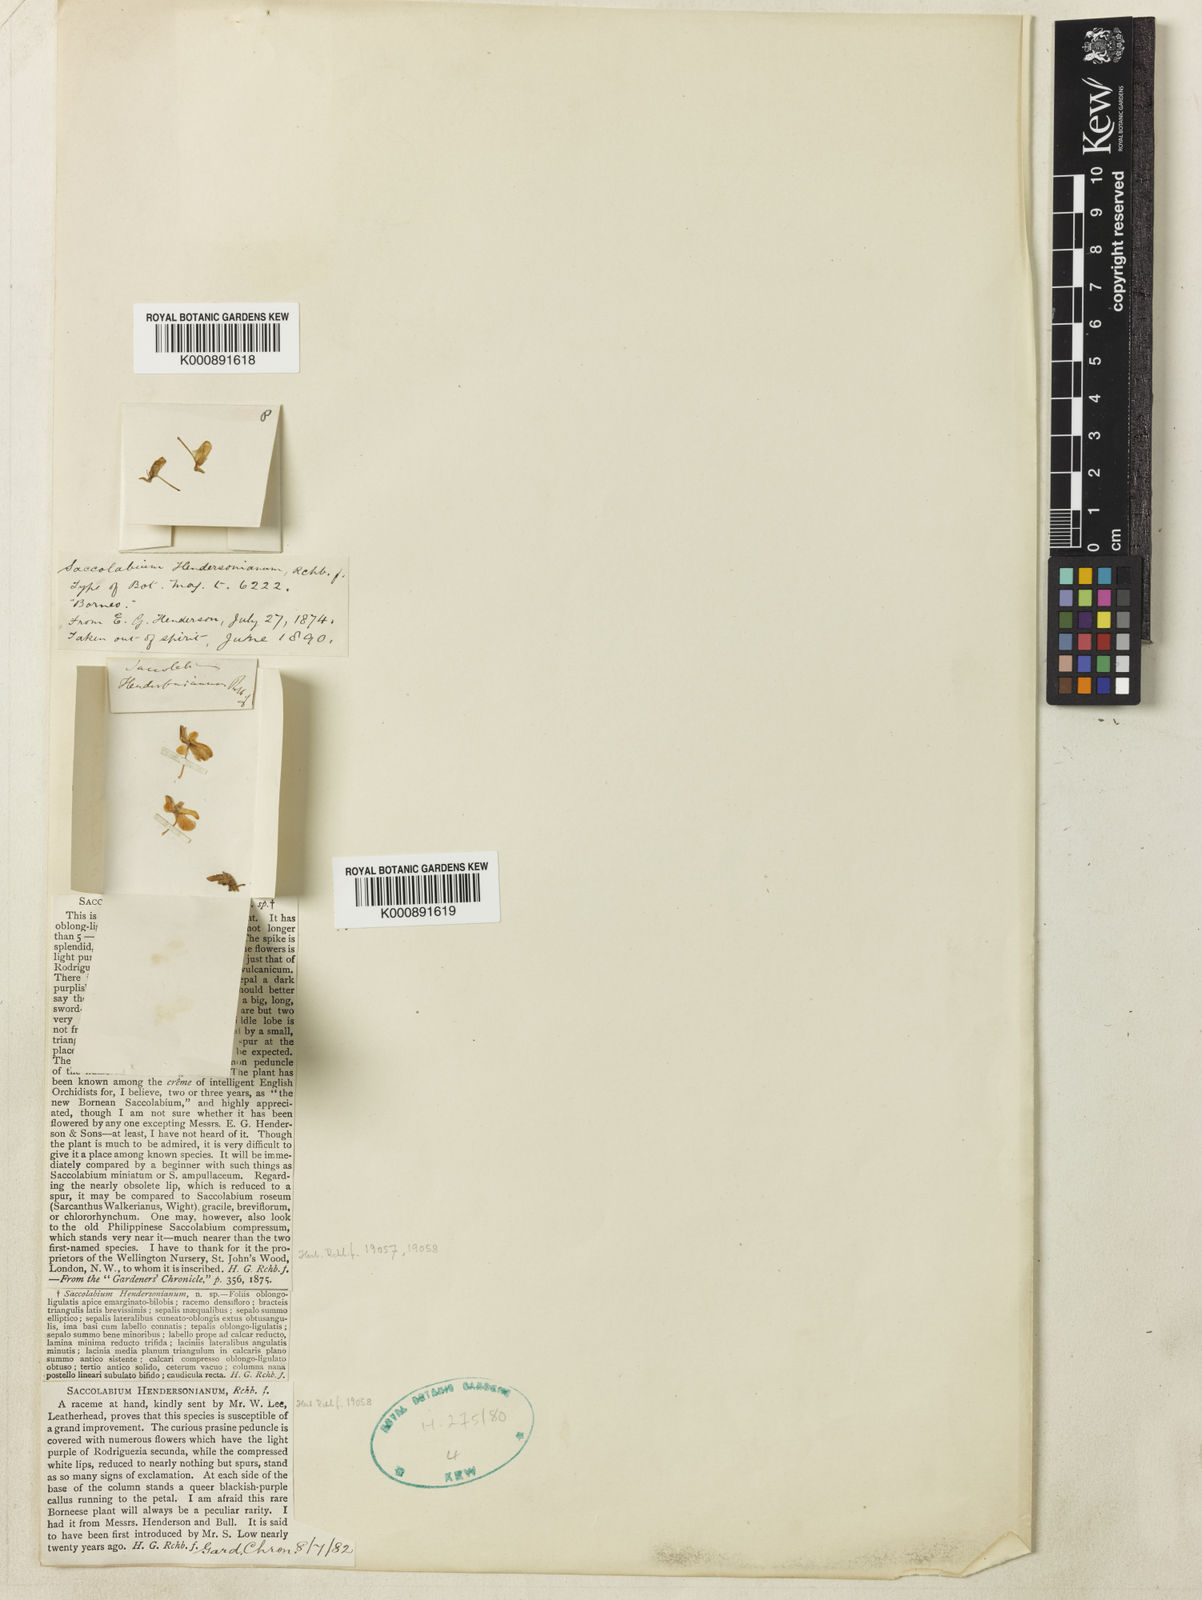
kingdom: Plantae
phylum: Tracheophyta
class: Liliopsida
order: Asparagales
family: Orchidaceae
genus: Dyakia
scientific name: Dyakia hendersoniana
